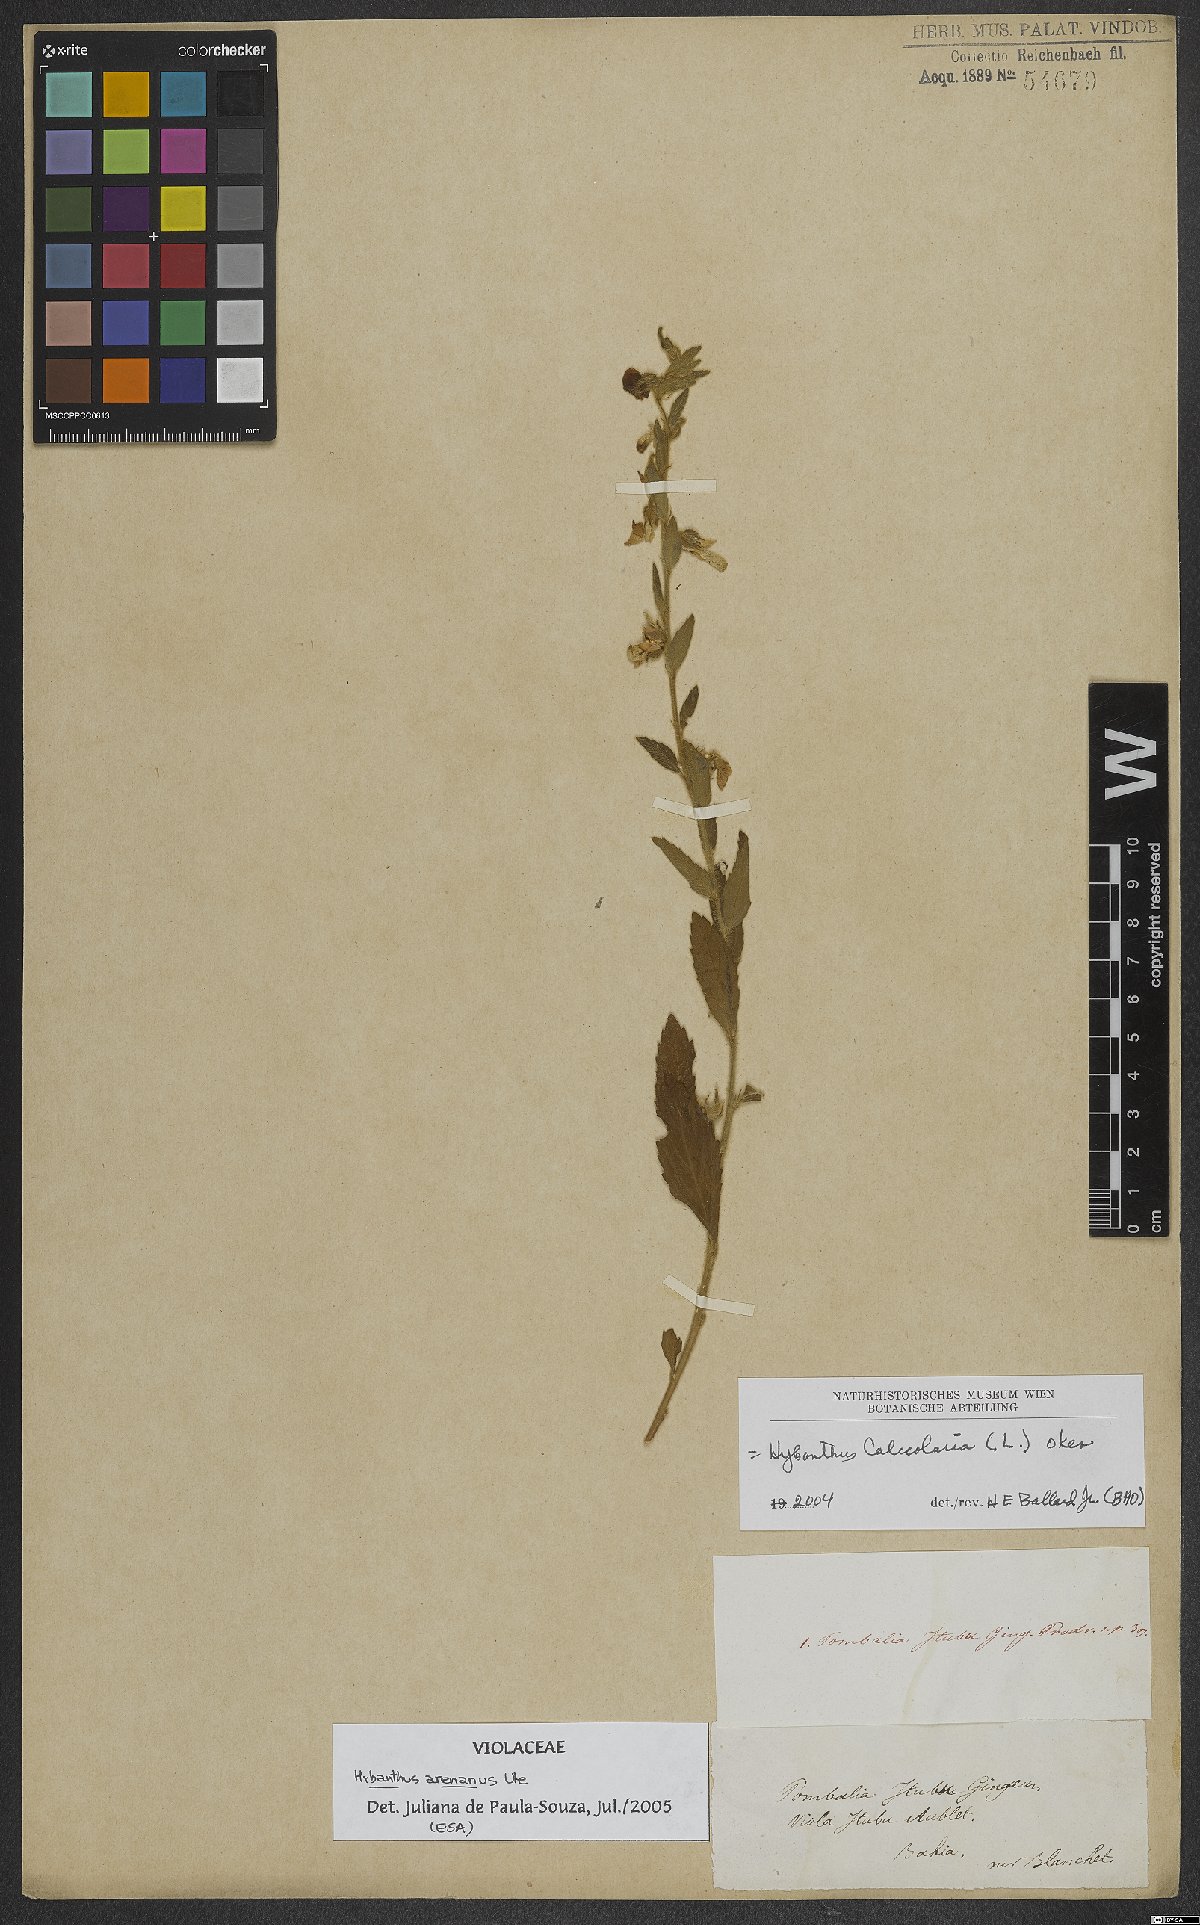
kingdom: Plantae
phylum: Tracheophyta
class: Magnoliopsida
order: Malpighiales
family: Violaceae
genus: Pombalia
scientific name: Pombalia arenaria
